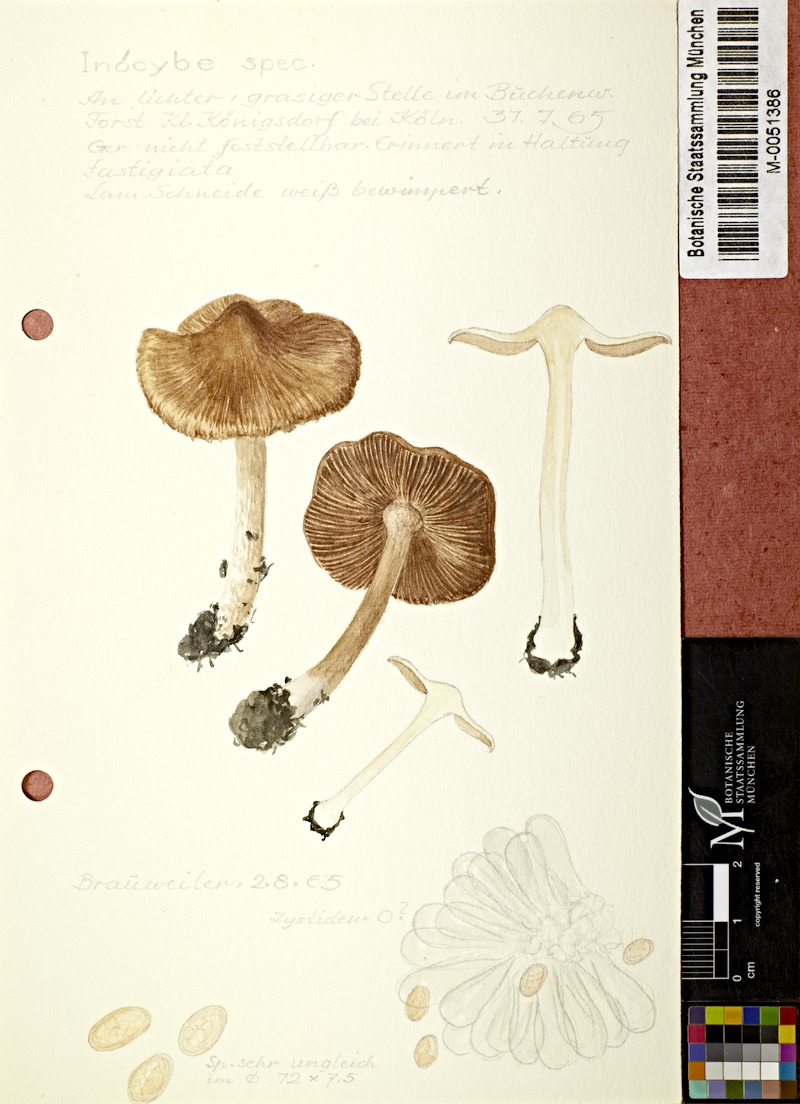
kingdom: Fungi
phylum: Basidiomycota
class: Agaricomycetes
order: Agaricales
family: Inocybaceae
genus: Inocybe
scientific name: Inocybe
